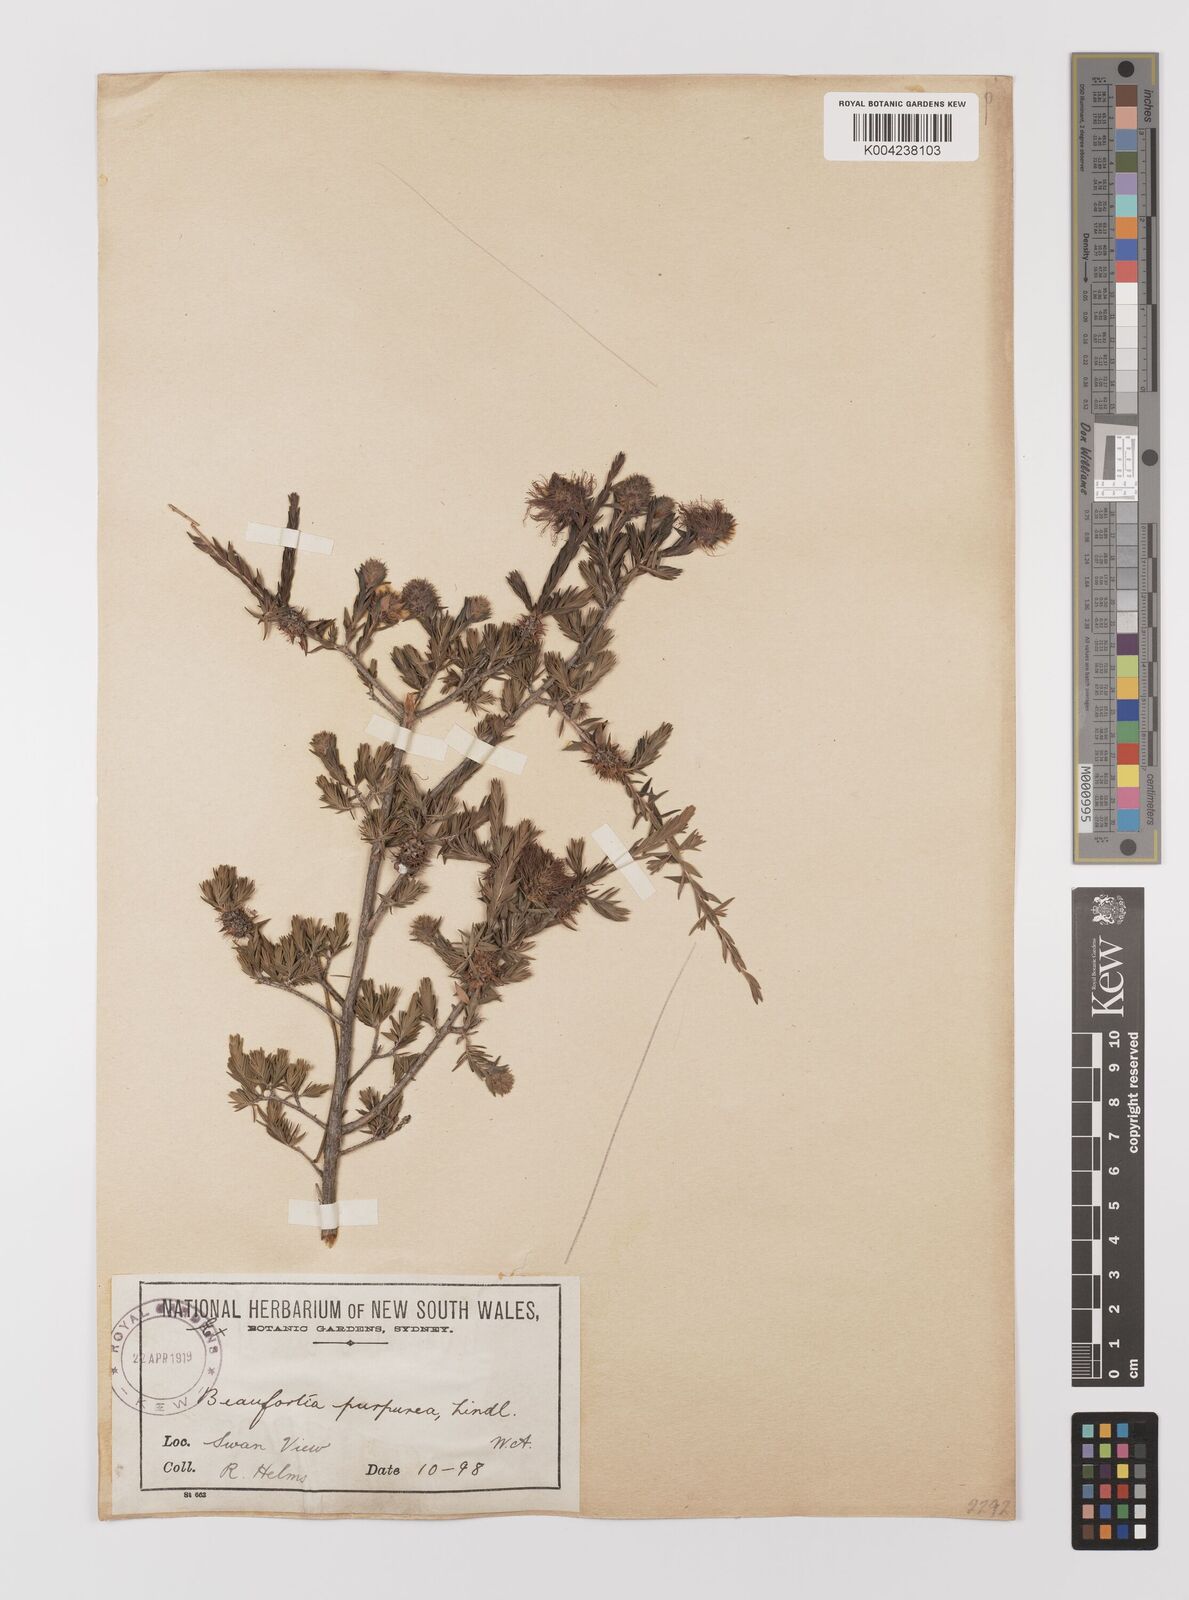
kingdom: Plantae
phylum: Tracheophyta
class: Magnoliopsida
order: Myrtales
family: Myrtaceae
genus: Melaleuca
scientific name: Melaleuca purpurea
